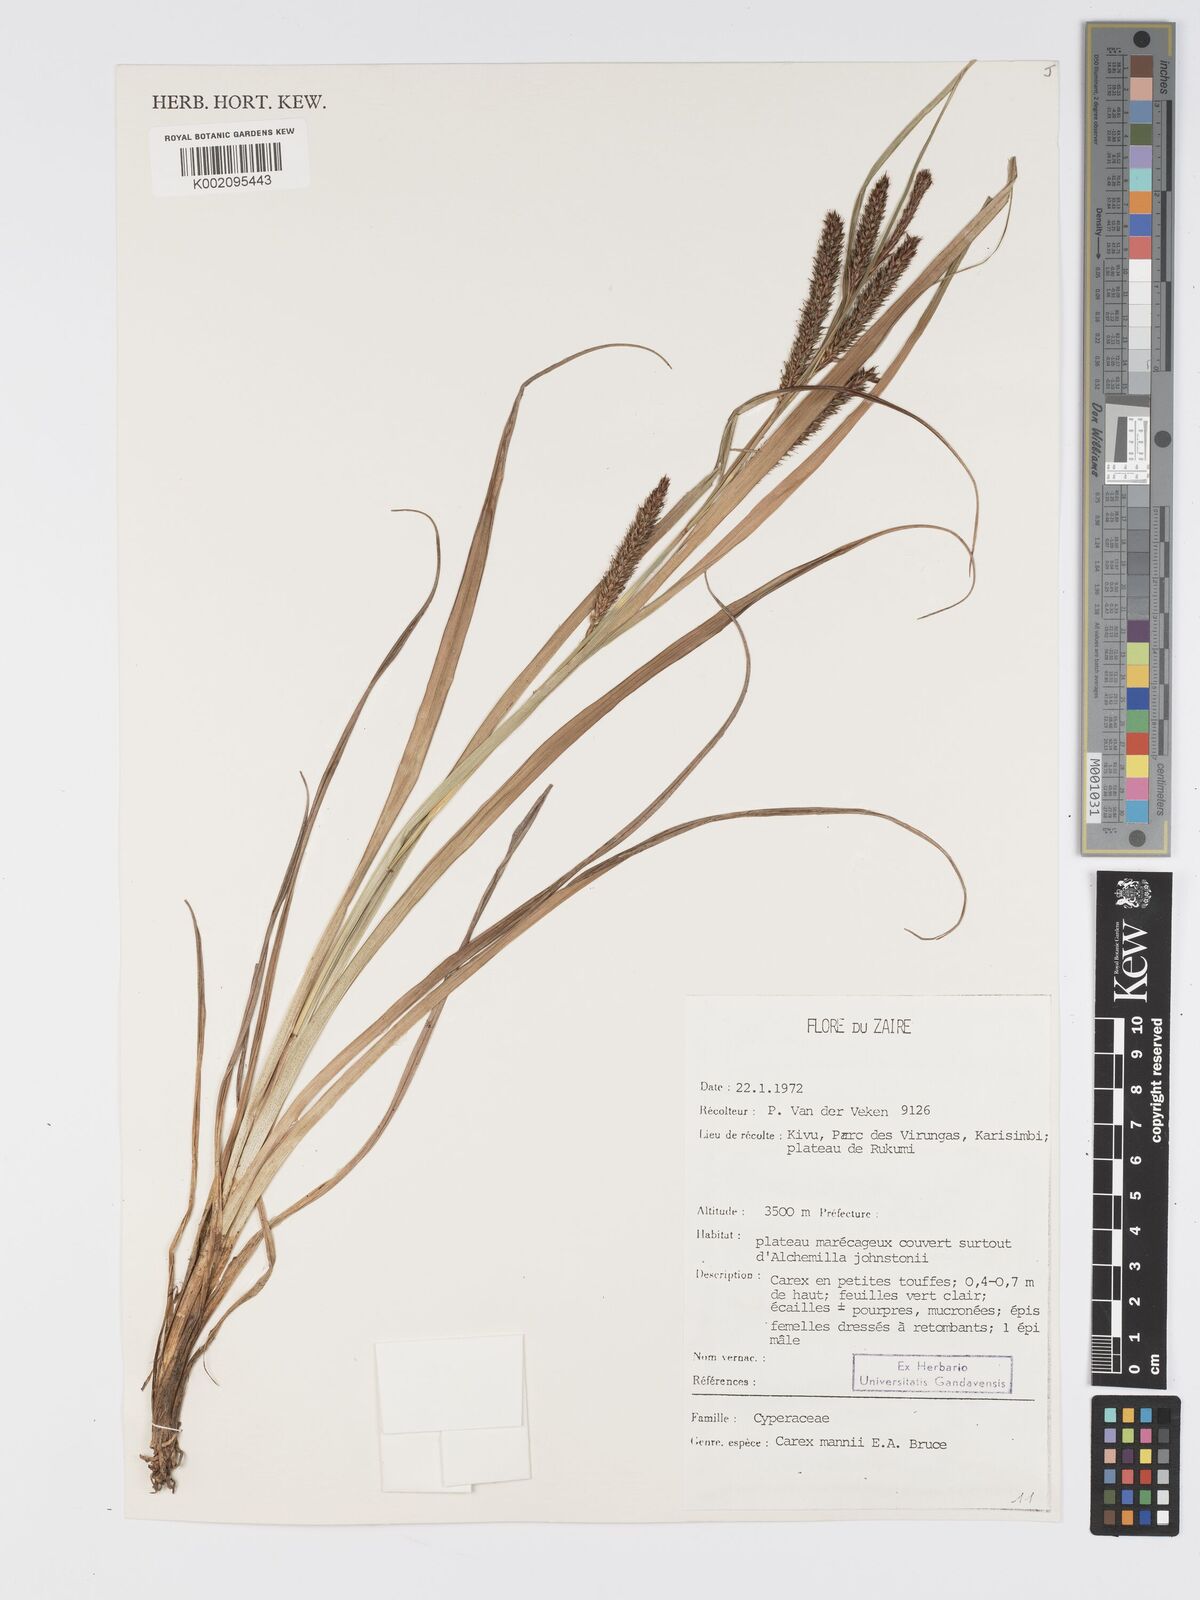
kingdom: Plantae
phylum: Tracheophyta
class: Liliopsida
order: Poales
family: Cyperaceae
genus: Carex
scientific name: Carex mannii
